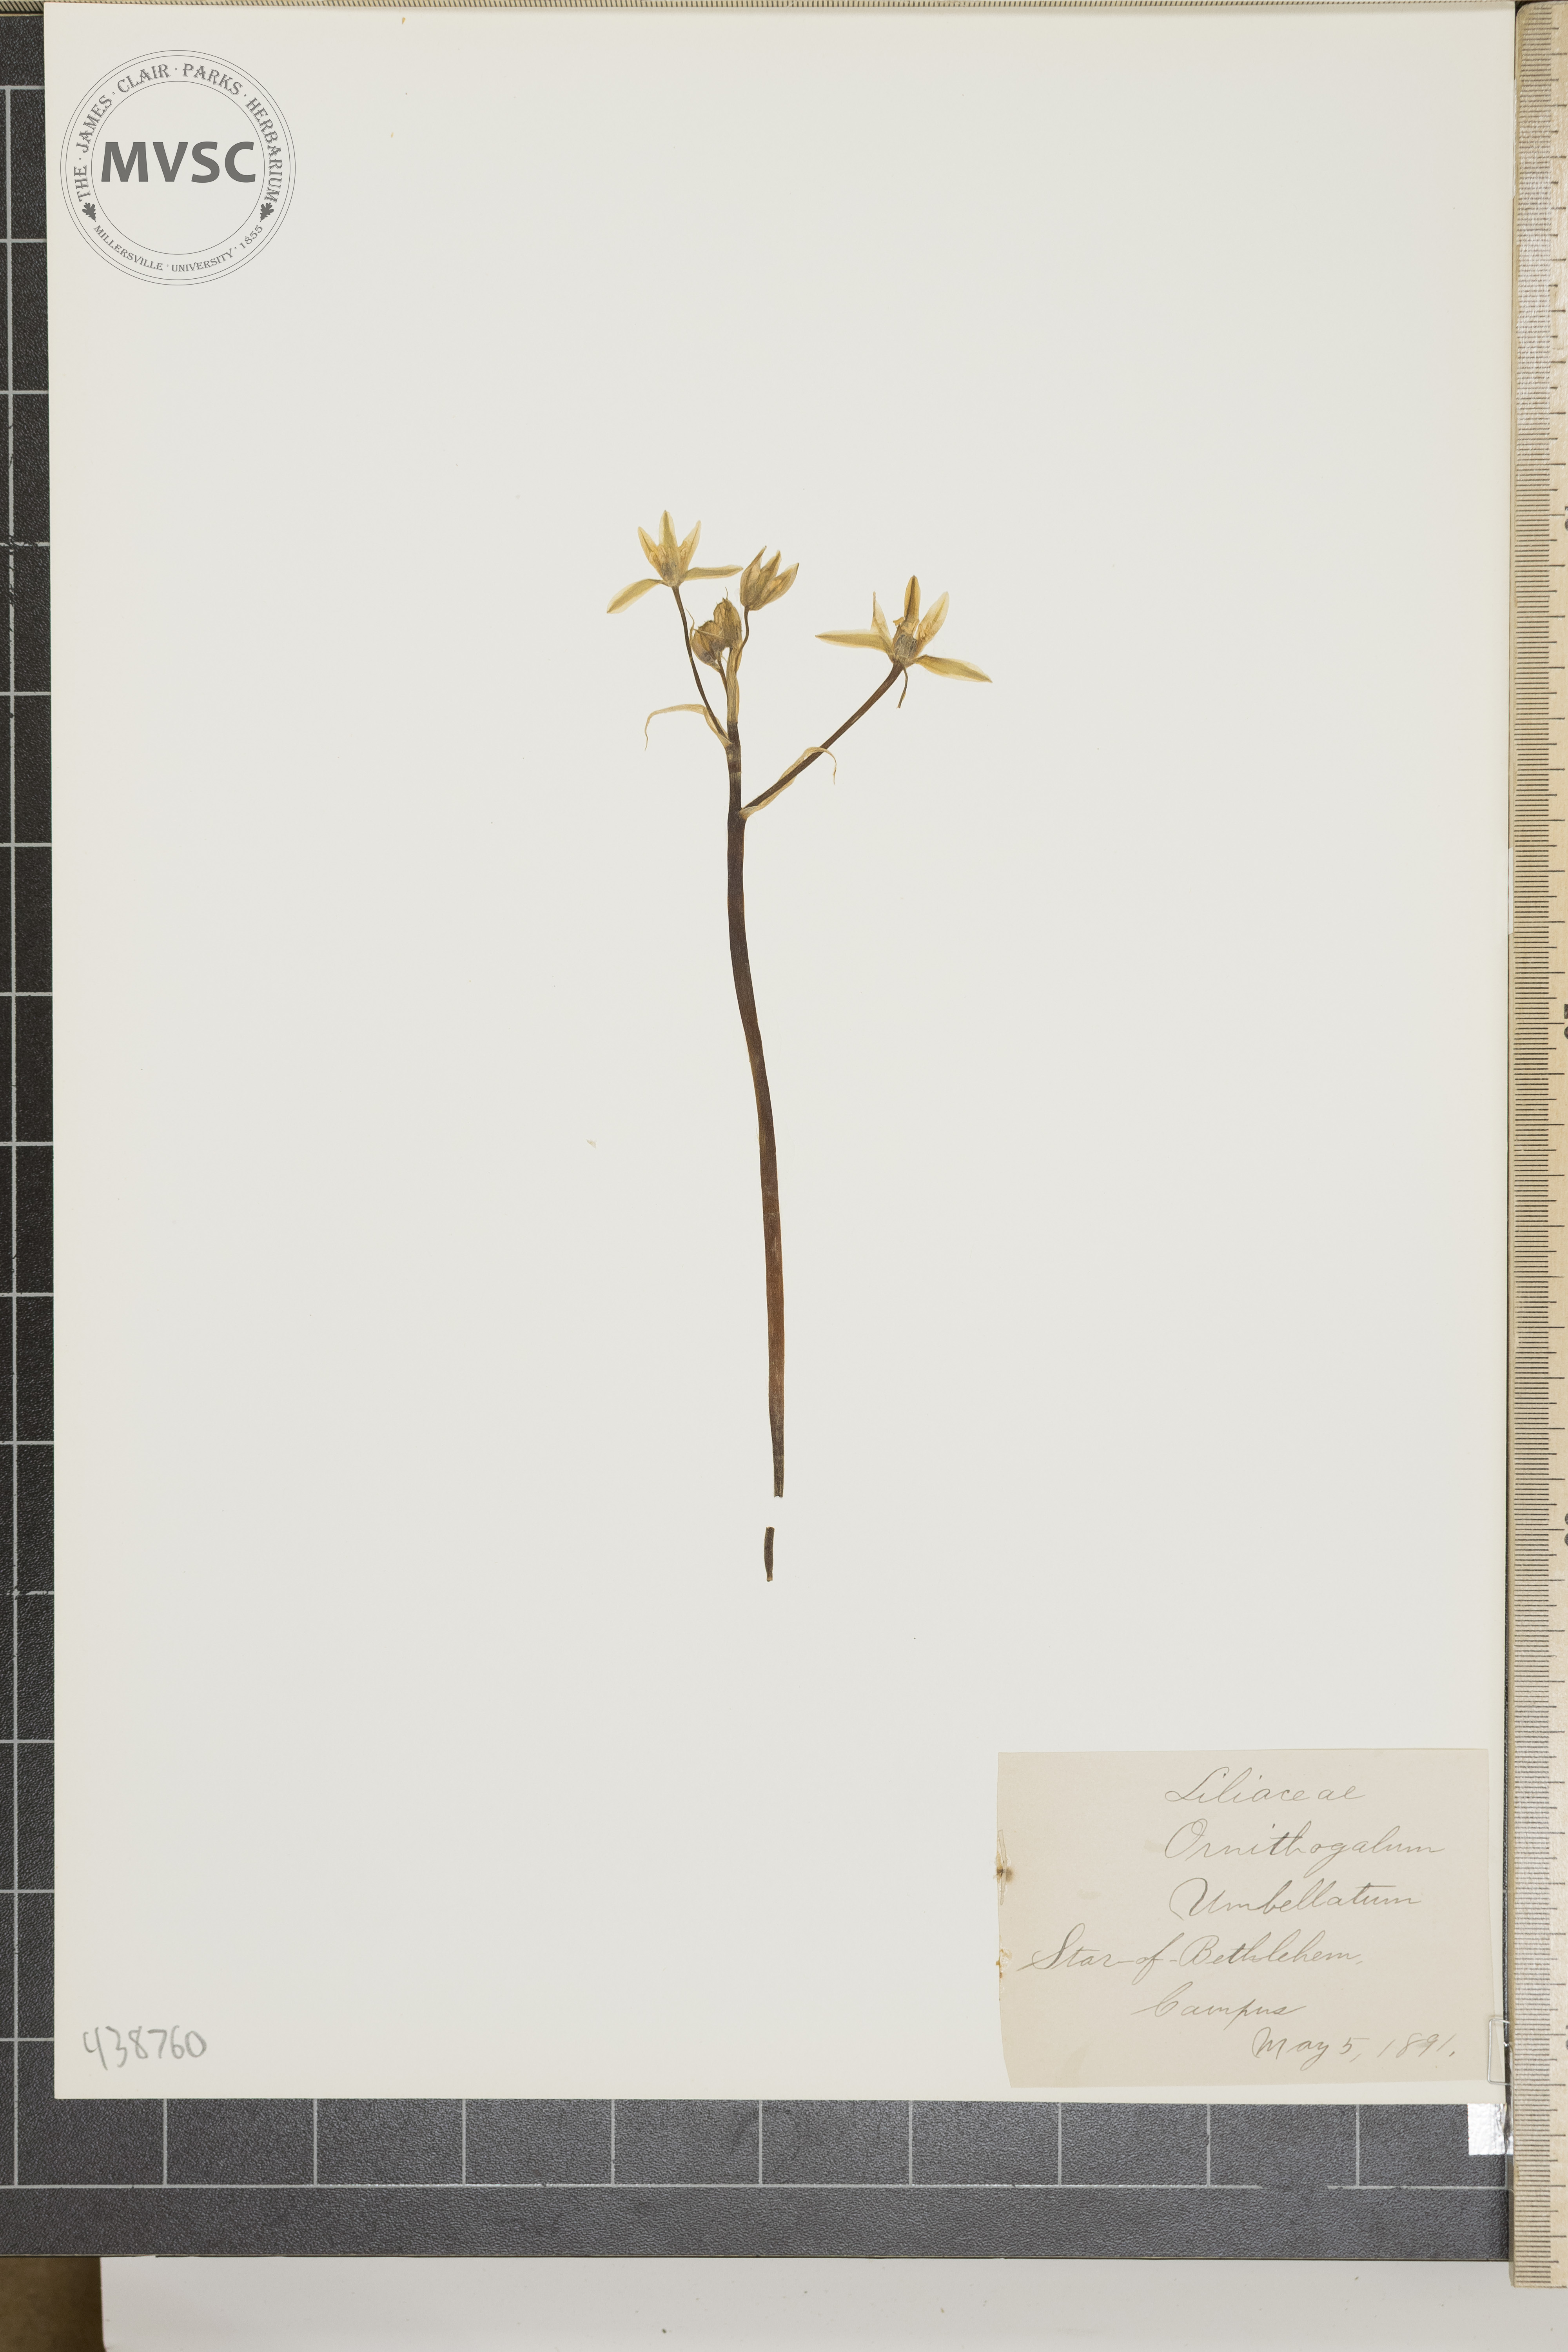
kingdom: Plantae
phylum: Tracheophyta
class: Liliopsida
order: Asparagales
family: Asparagaceae
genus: Ornithogalum
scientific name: Ornithogalum umbellatum
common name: Star of Bethlehem
